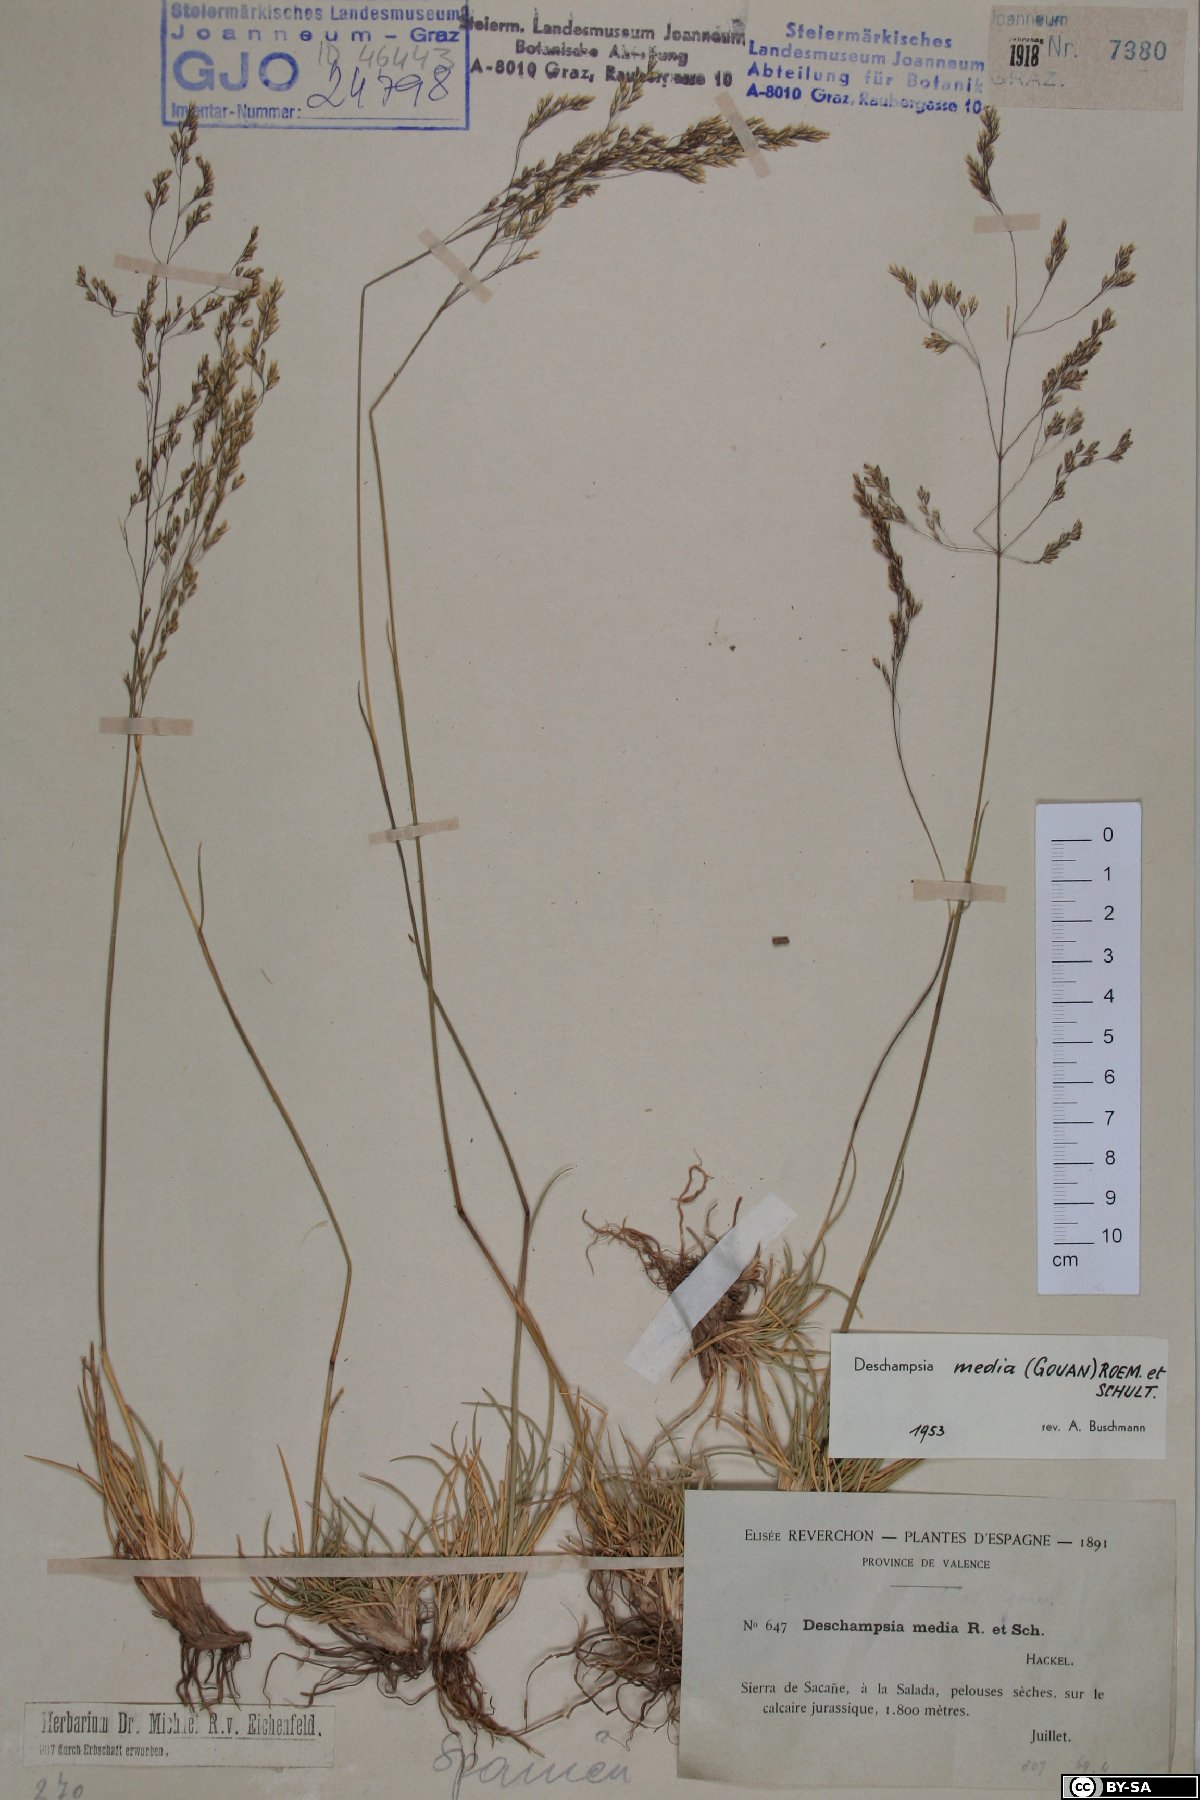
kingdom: Plantae
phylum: Tracheophyta
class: Liliopsida
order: Poales
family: Poaceae
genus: Deschampsia
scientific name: Deschampsia media
